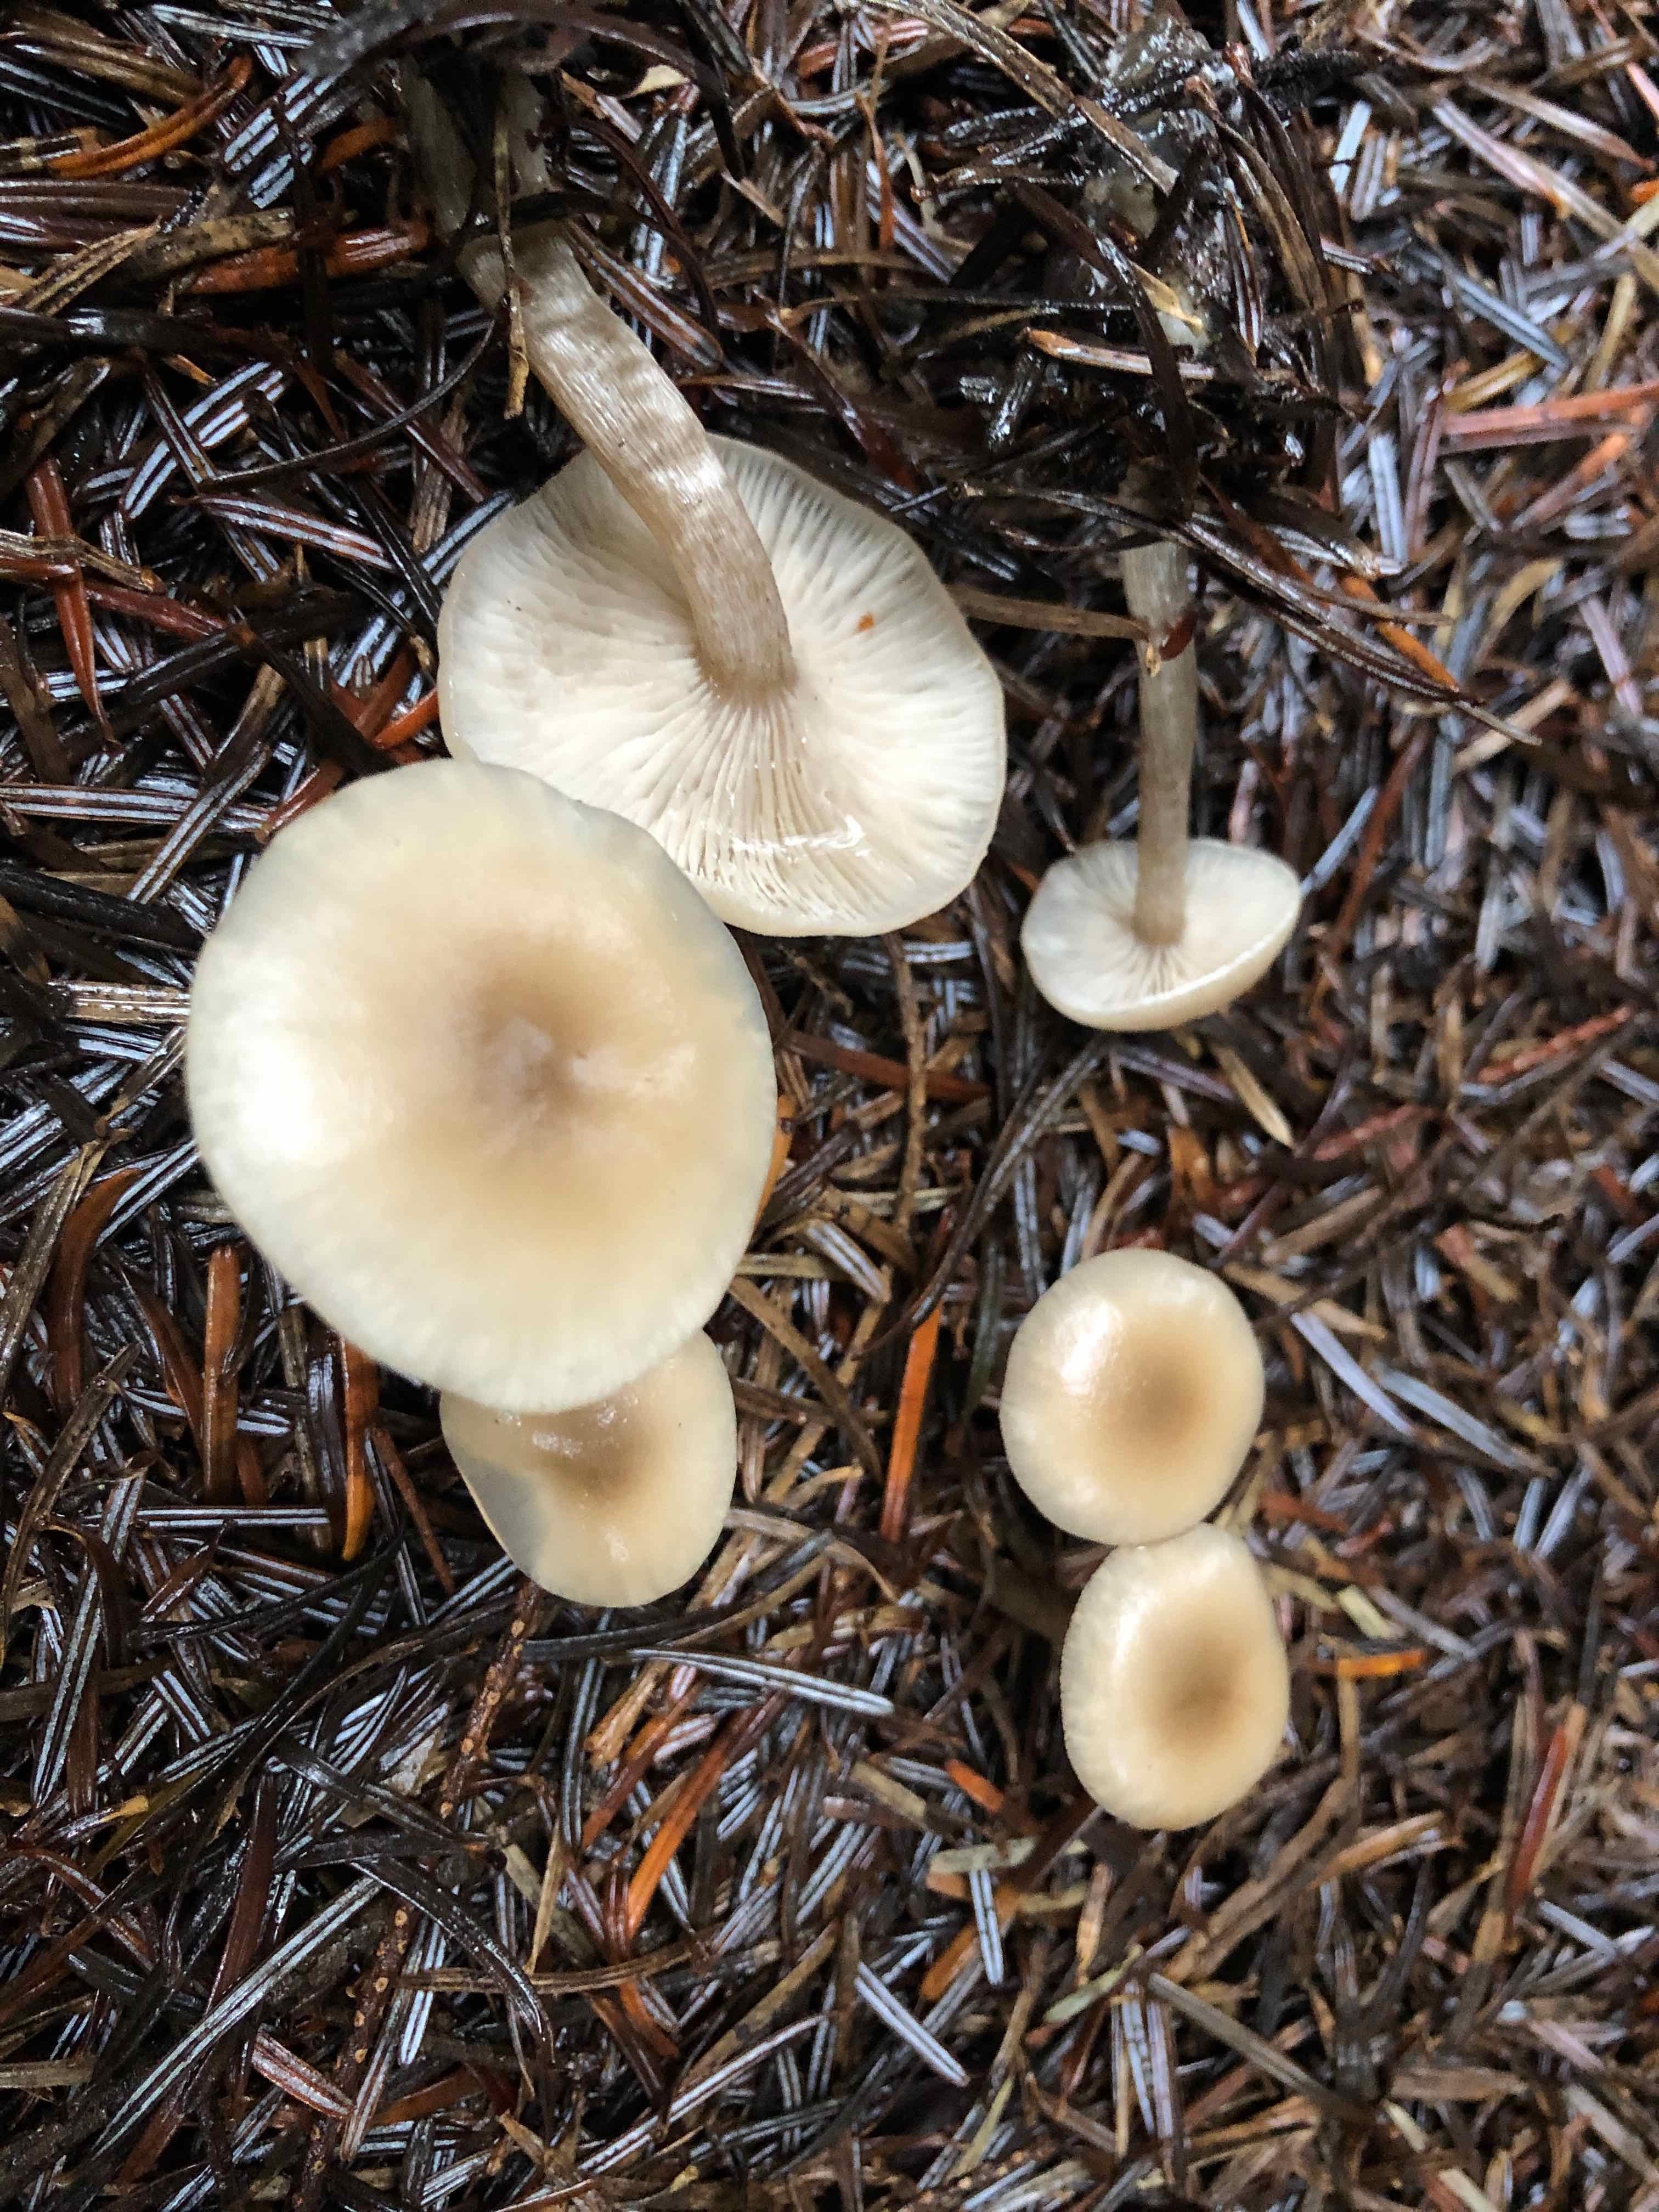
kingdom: Fungi
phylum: Basidiomycota
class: Agaricomycetes
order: Agaricales
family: Tricholomataceae
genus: Clitocybe
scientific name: Clitocybe fragrans
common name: vellugtende tragthat
